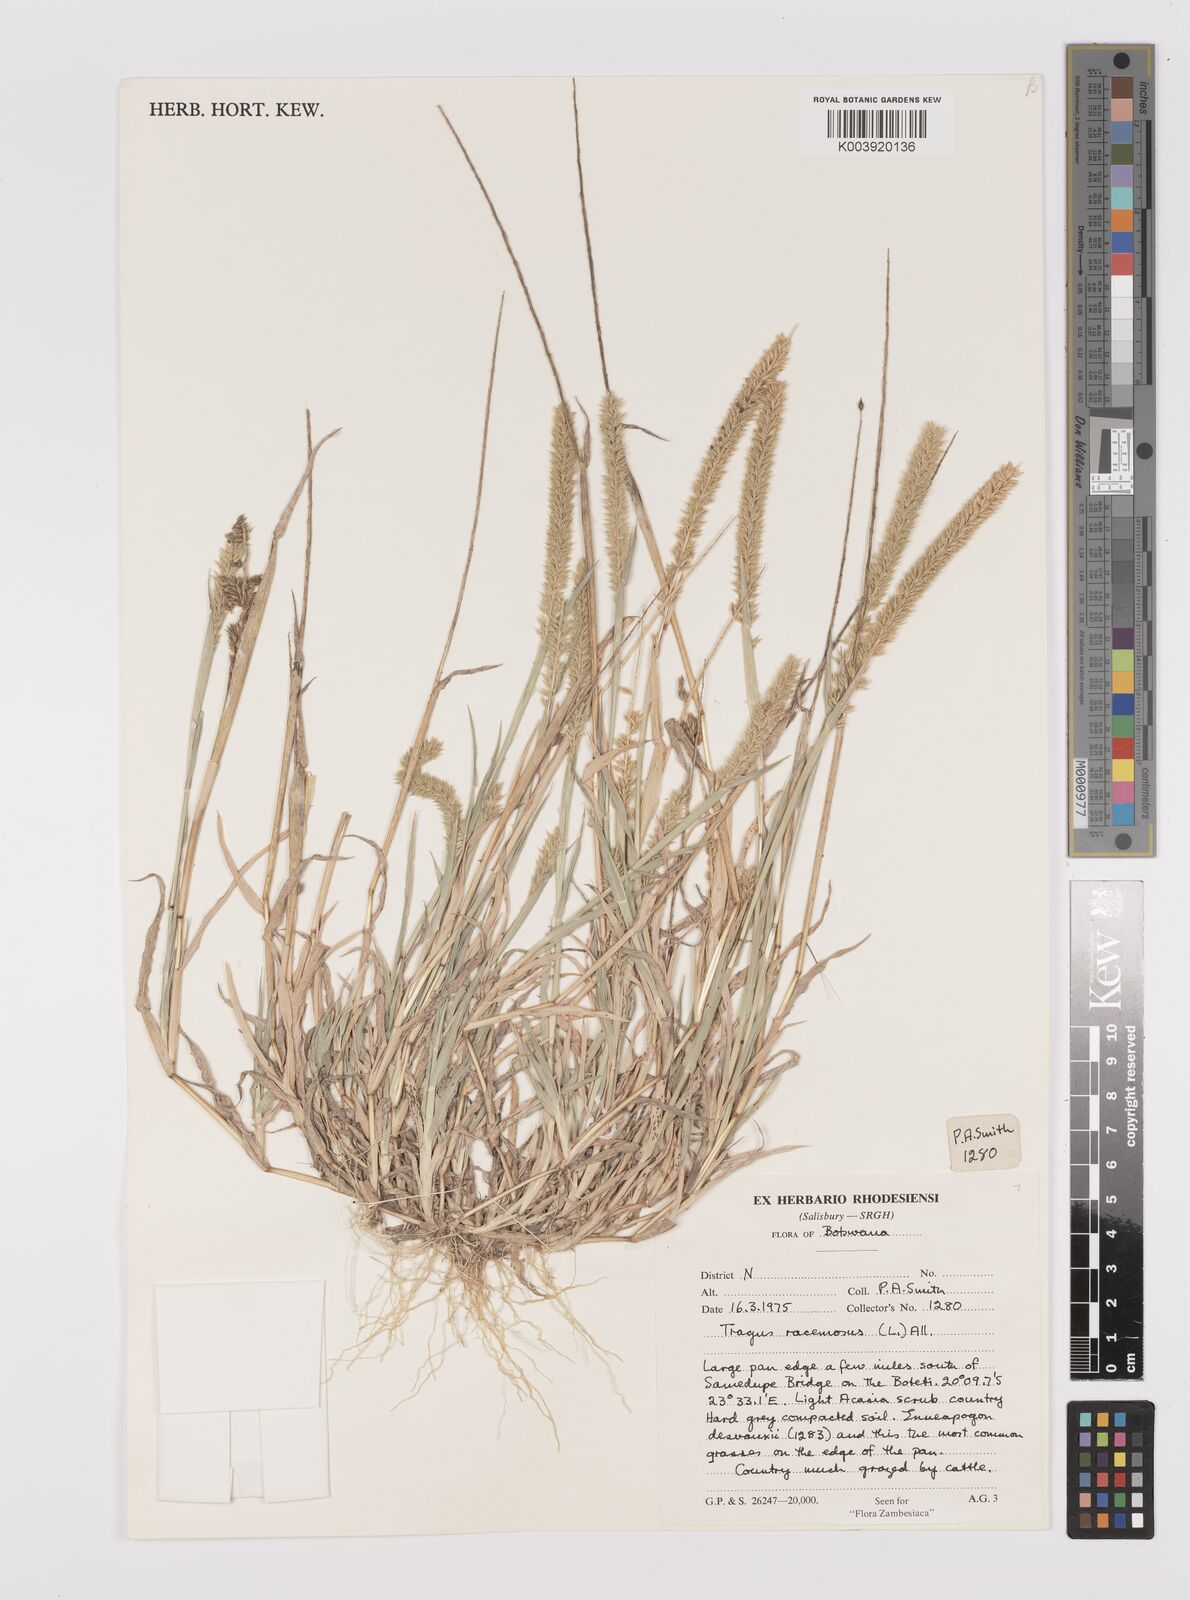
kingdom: Plantae
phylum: Tracheophyta
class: Liliopsida
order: Poales
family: Poaceae
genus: Tragus
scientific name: Tragus racemosus
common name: European bur-grass
